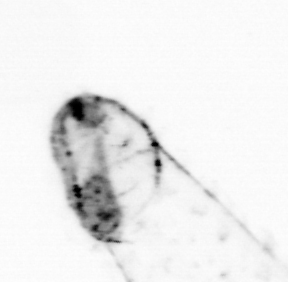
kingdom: Animalia
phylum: Chaetognatha
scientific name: Chaetognatha
